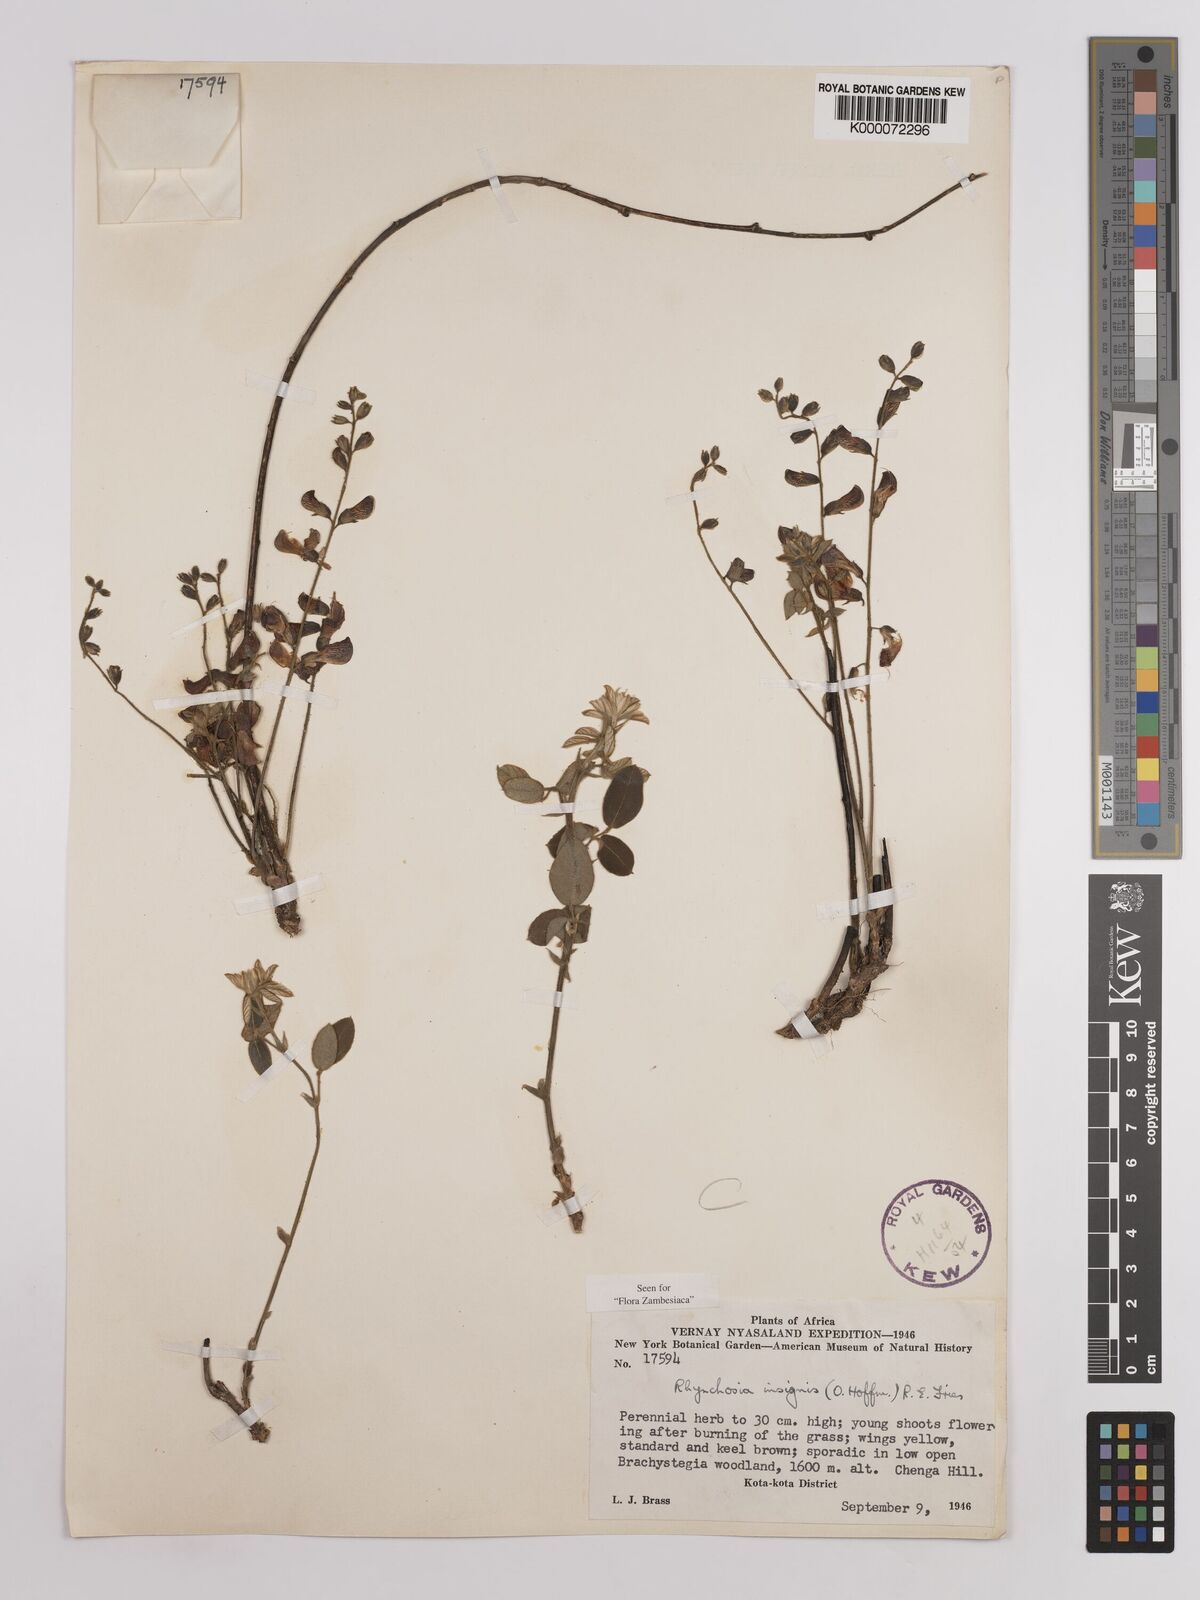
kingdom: Plantae
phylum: Tracheophyta
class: Magnoliopsida
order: Fabales
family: Fabaceae
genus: Rhynchosia
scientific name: Rhynchosia insignis
